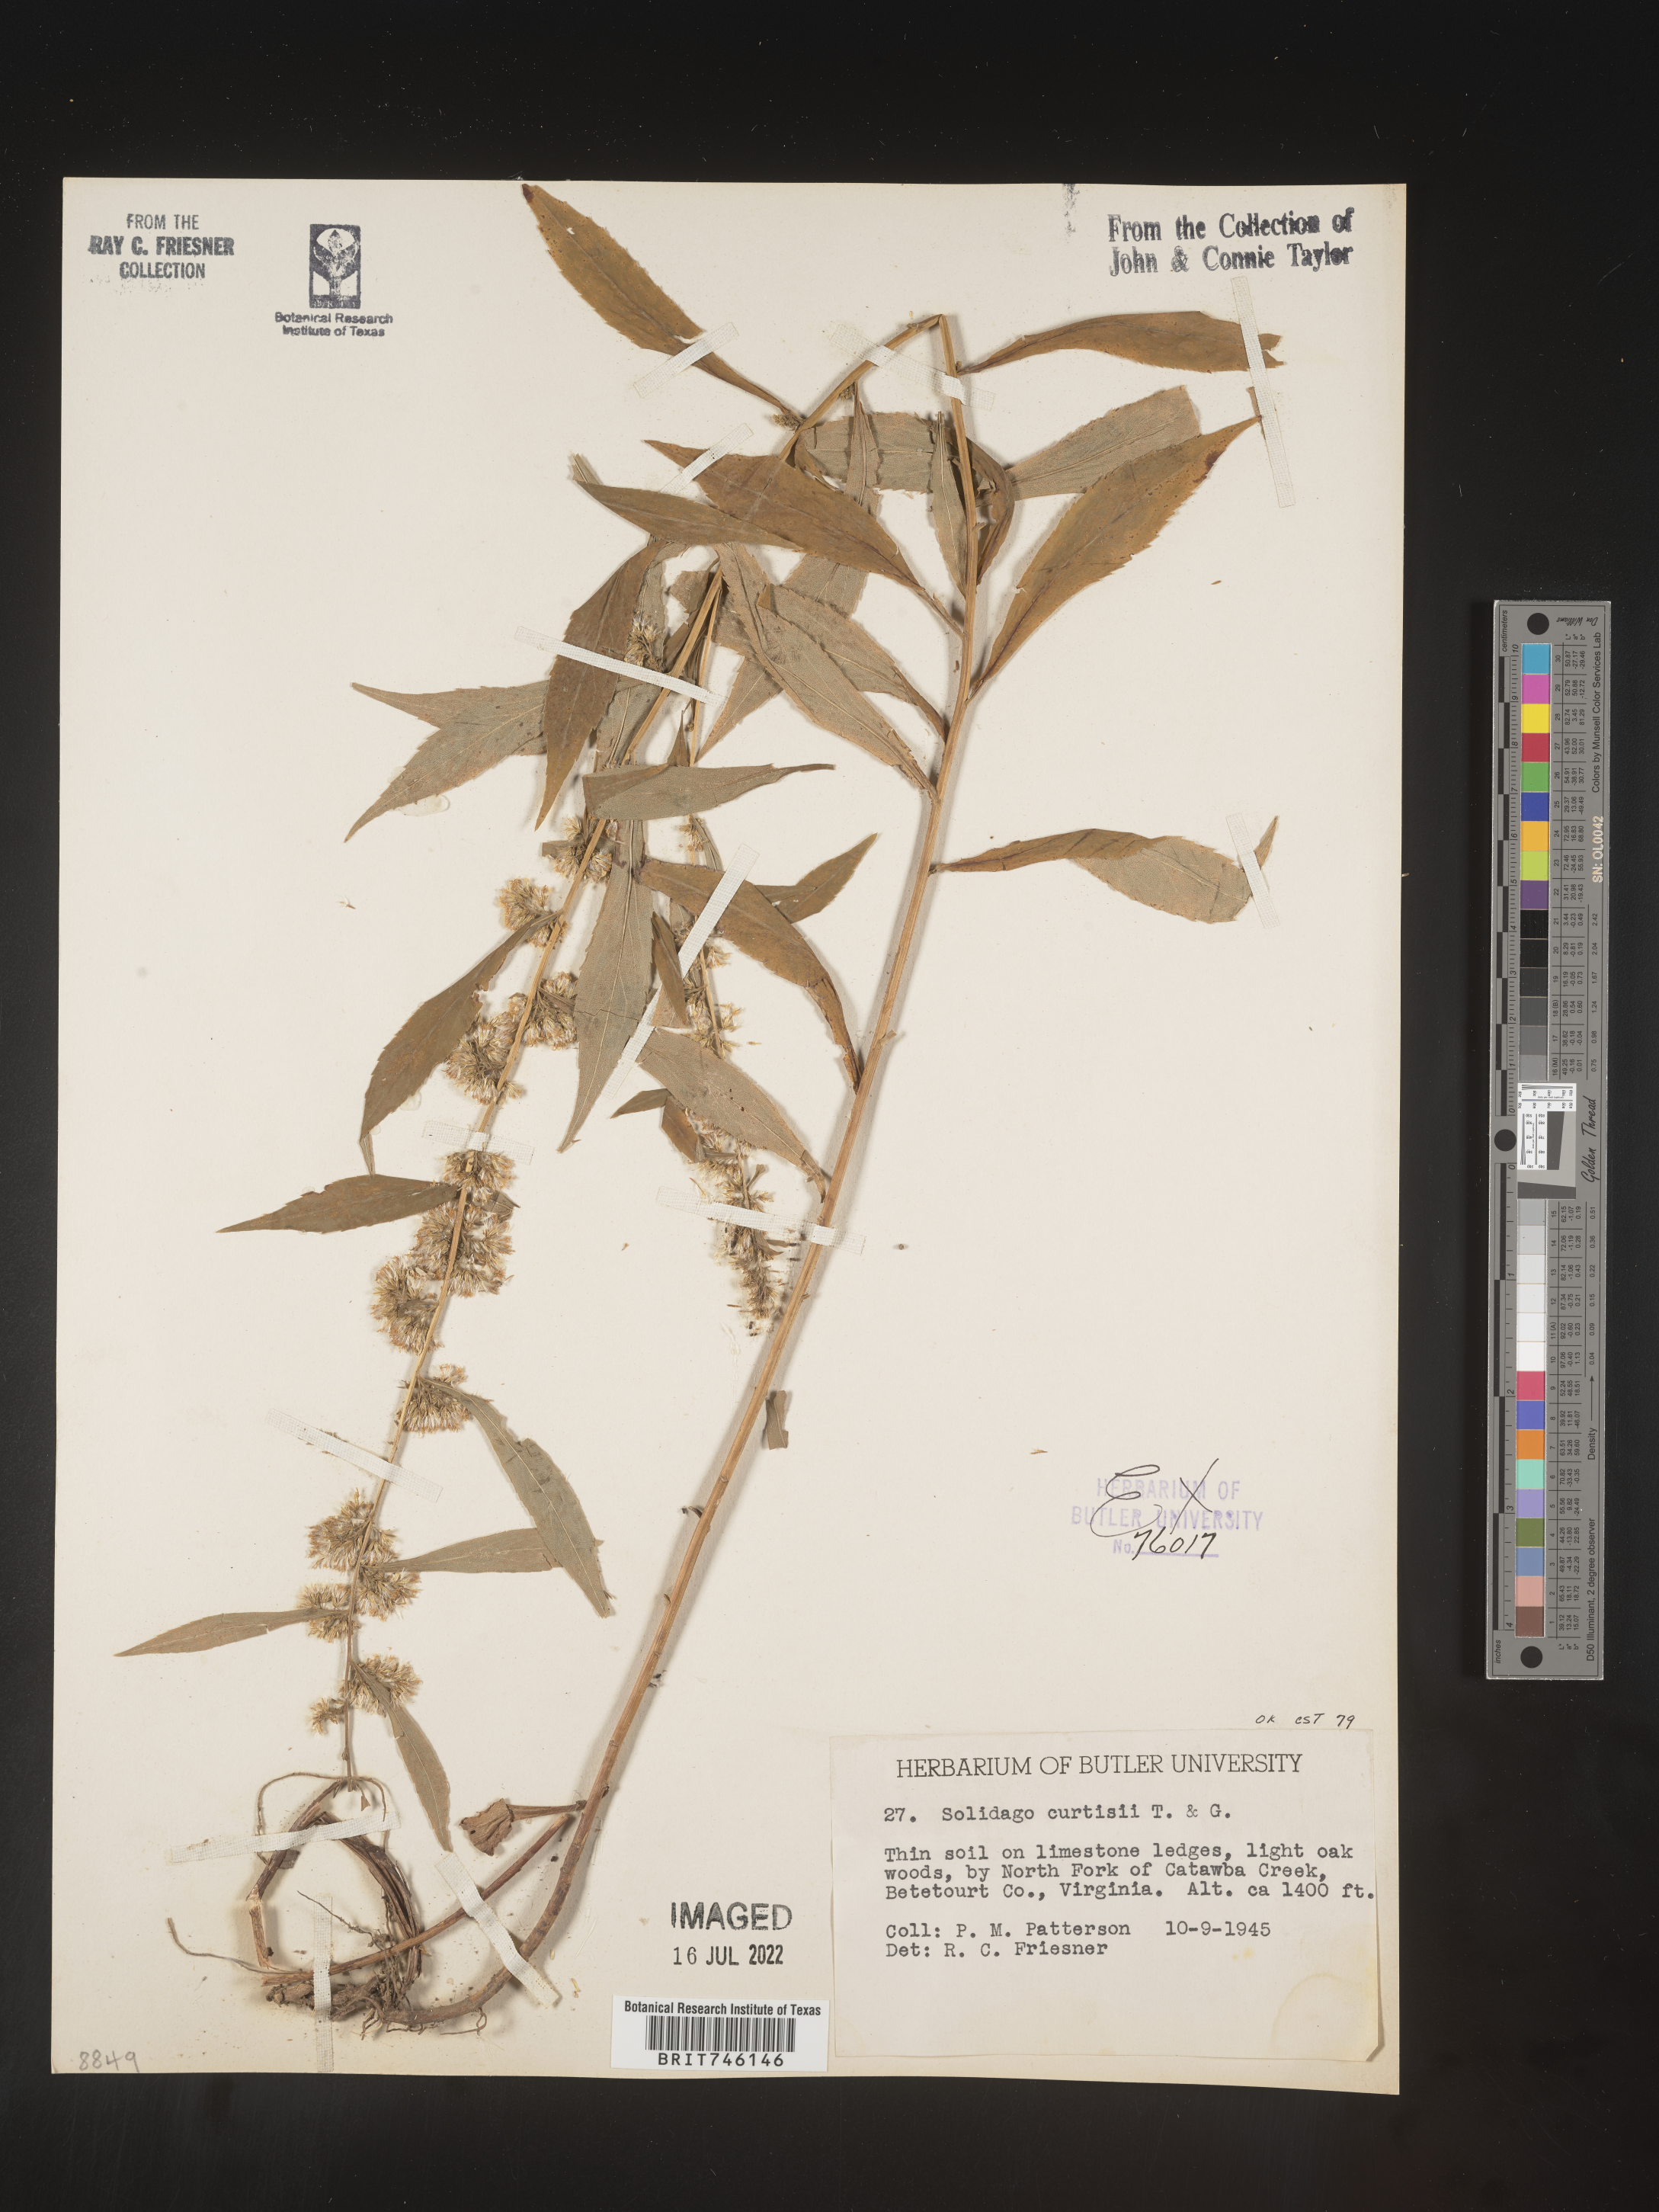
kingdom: Plantae
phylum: Tracheophyta
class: Magnoliopsida
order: Asterales
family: Asteraceae
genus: Solidago
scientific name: Solidago curtisii
